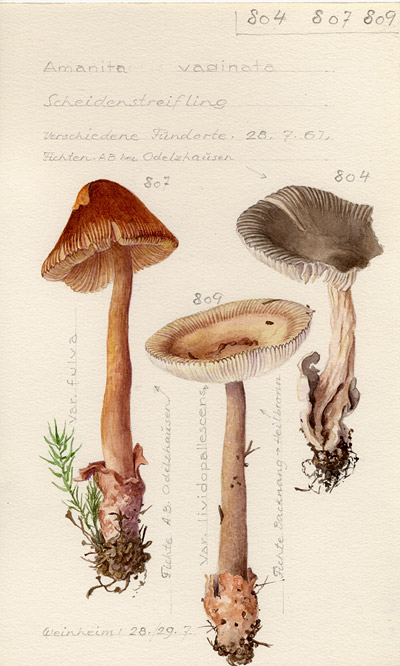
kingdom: Fungi
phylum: Basidiomycota
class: Agaricomycetes
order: Agaricales
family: Amanitaceae
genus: Amanita
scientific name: Amanita fulva
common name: Tawny grisette
